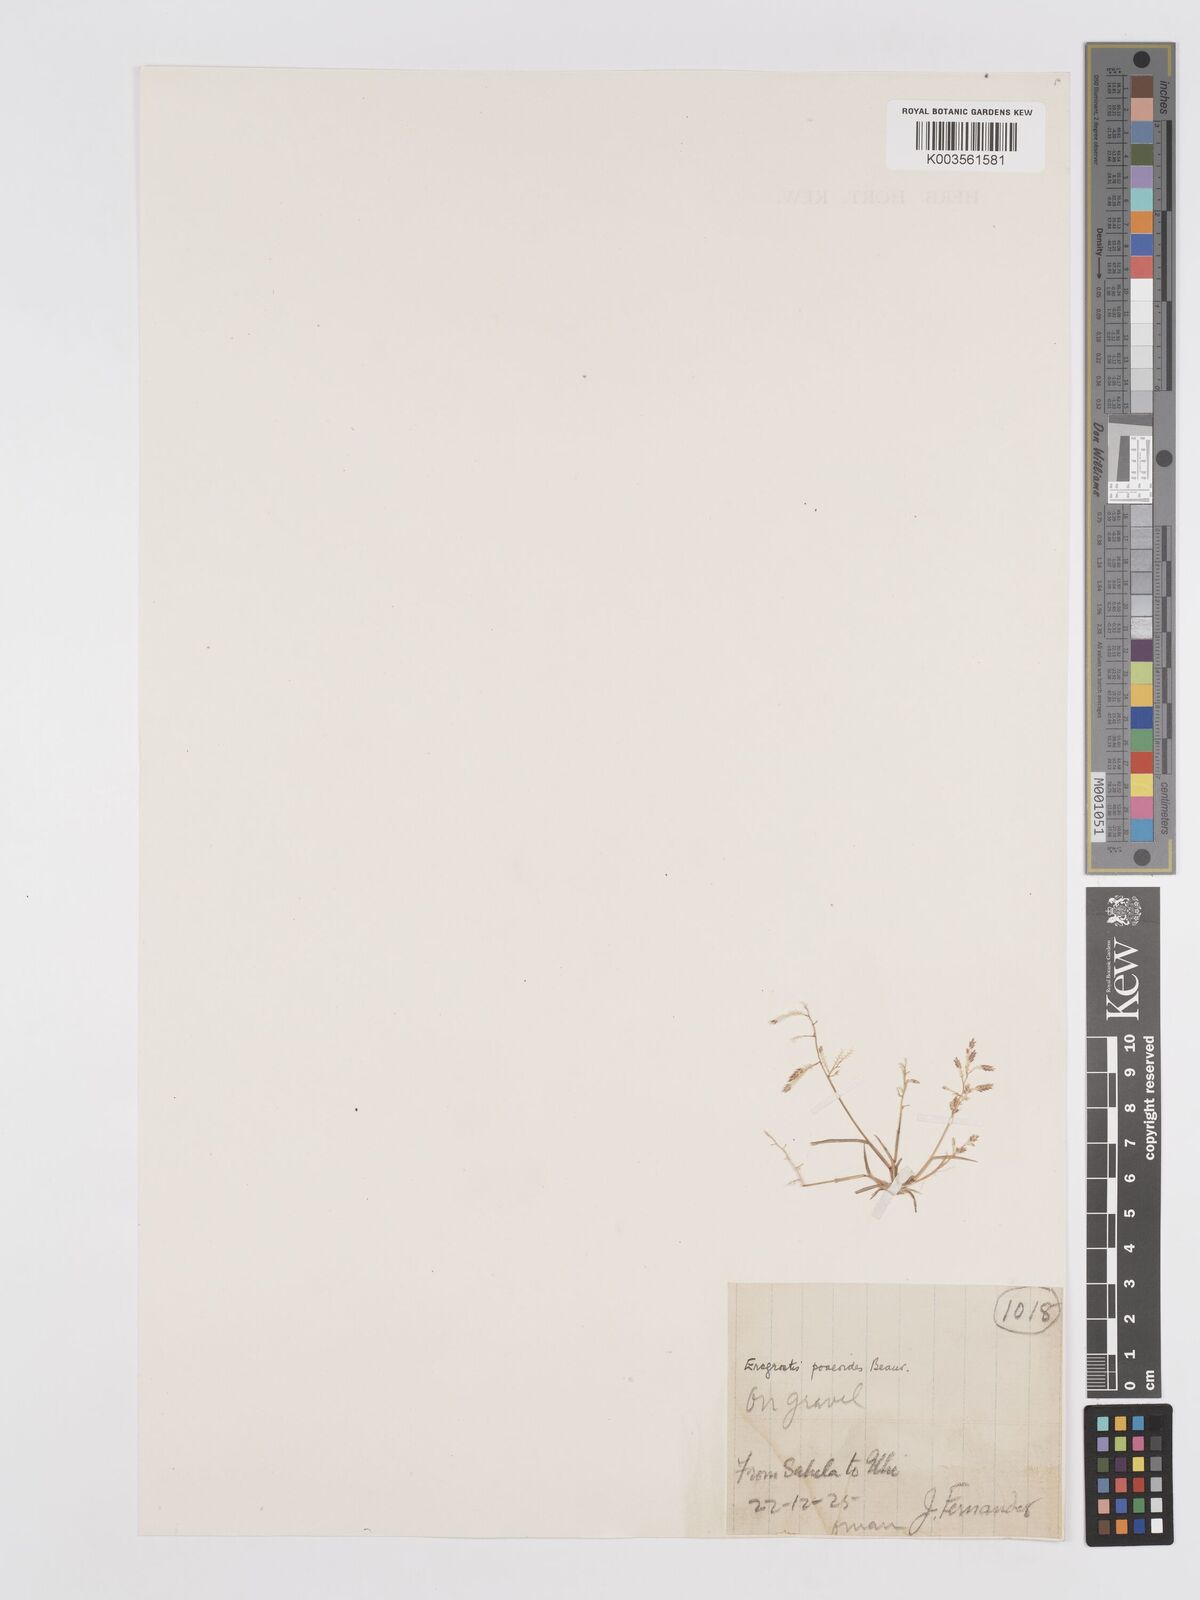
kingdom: Plantae
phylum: Tracheophyta
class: Liliopsida
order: Poales
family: Poaceae
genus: Eragrostis
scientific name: Eragrostis minor
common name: Small love-grass
